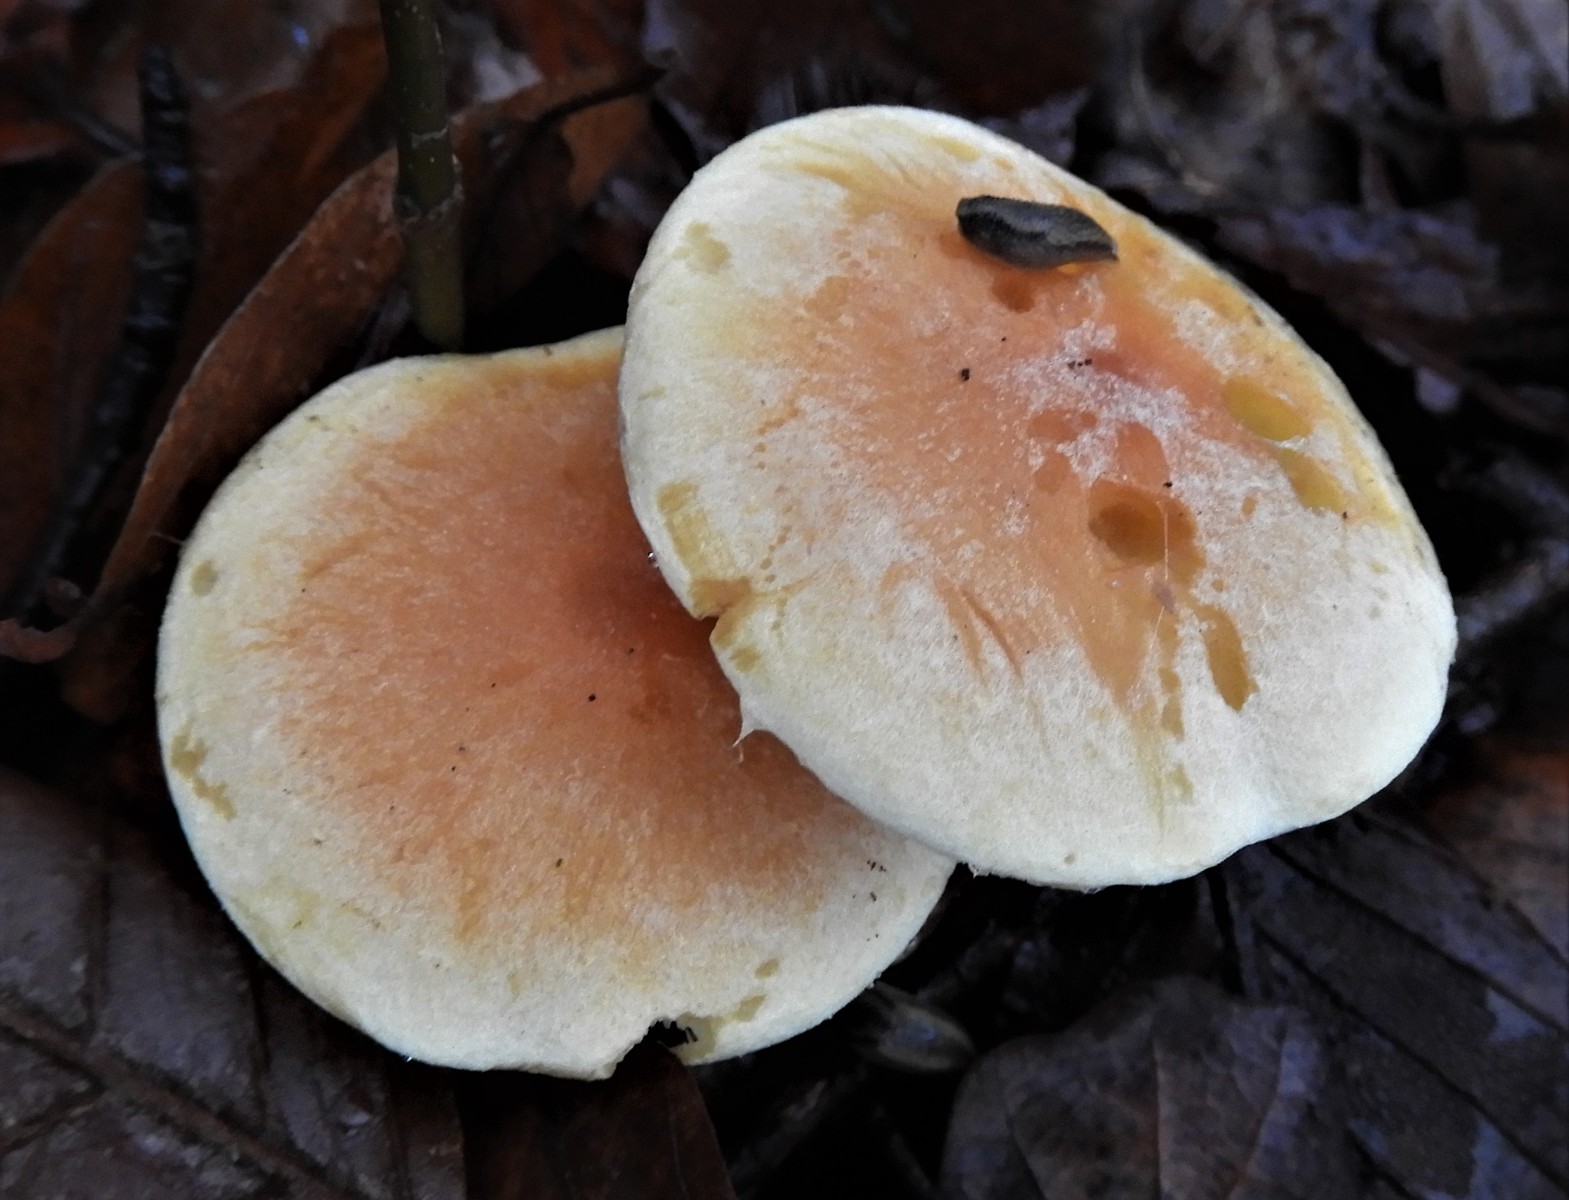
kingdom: Fungi
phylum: Basidiomycota
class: Agaricomycetes
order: Agaricales
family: Strophariaceae
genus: Hypholoma
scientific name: Hypholoma lateritium
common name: teglrød svovlhat
